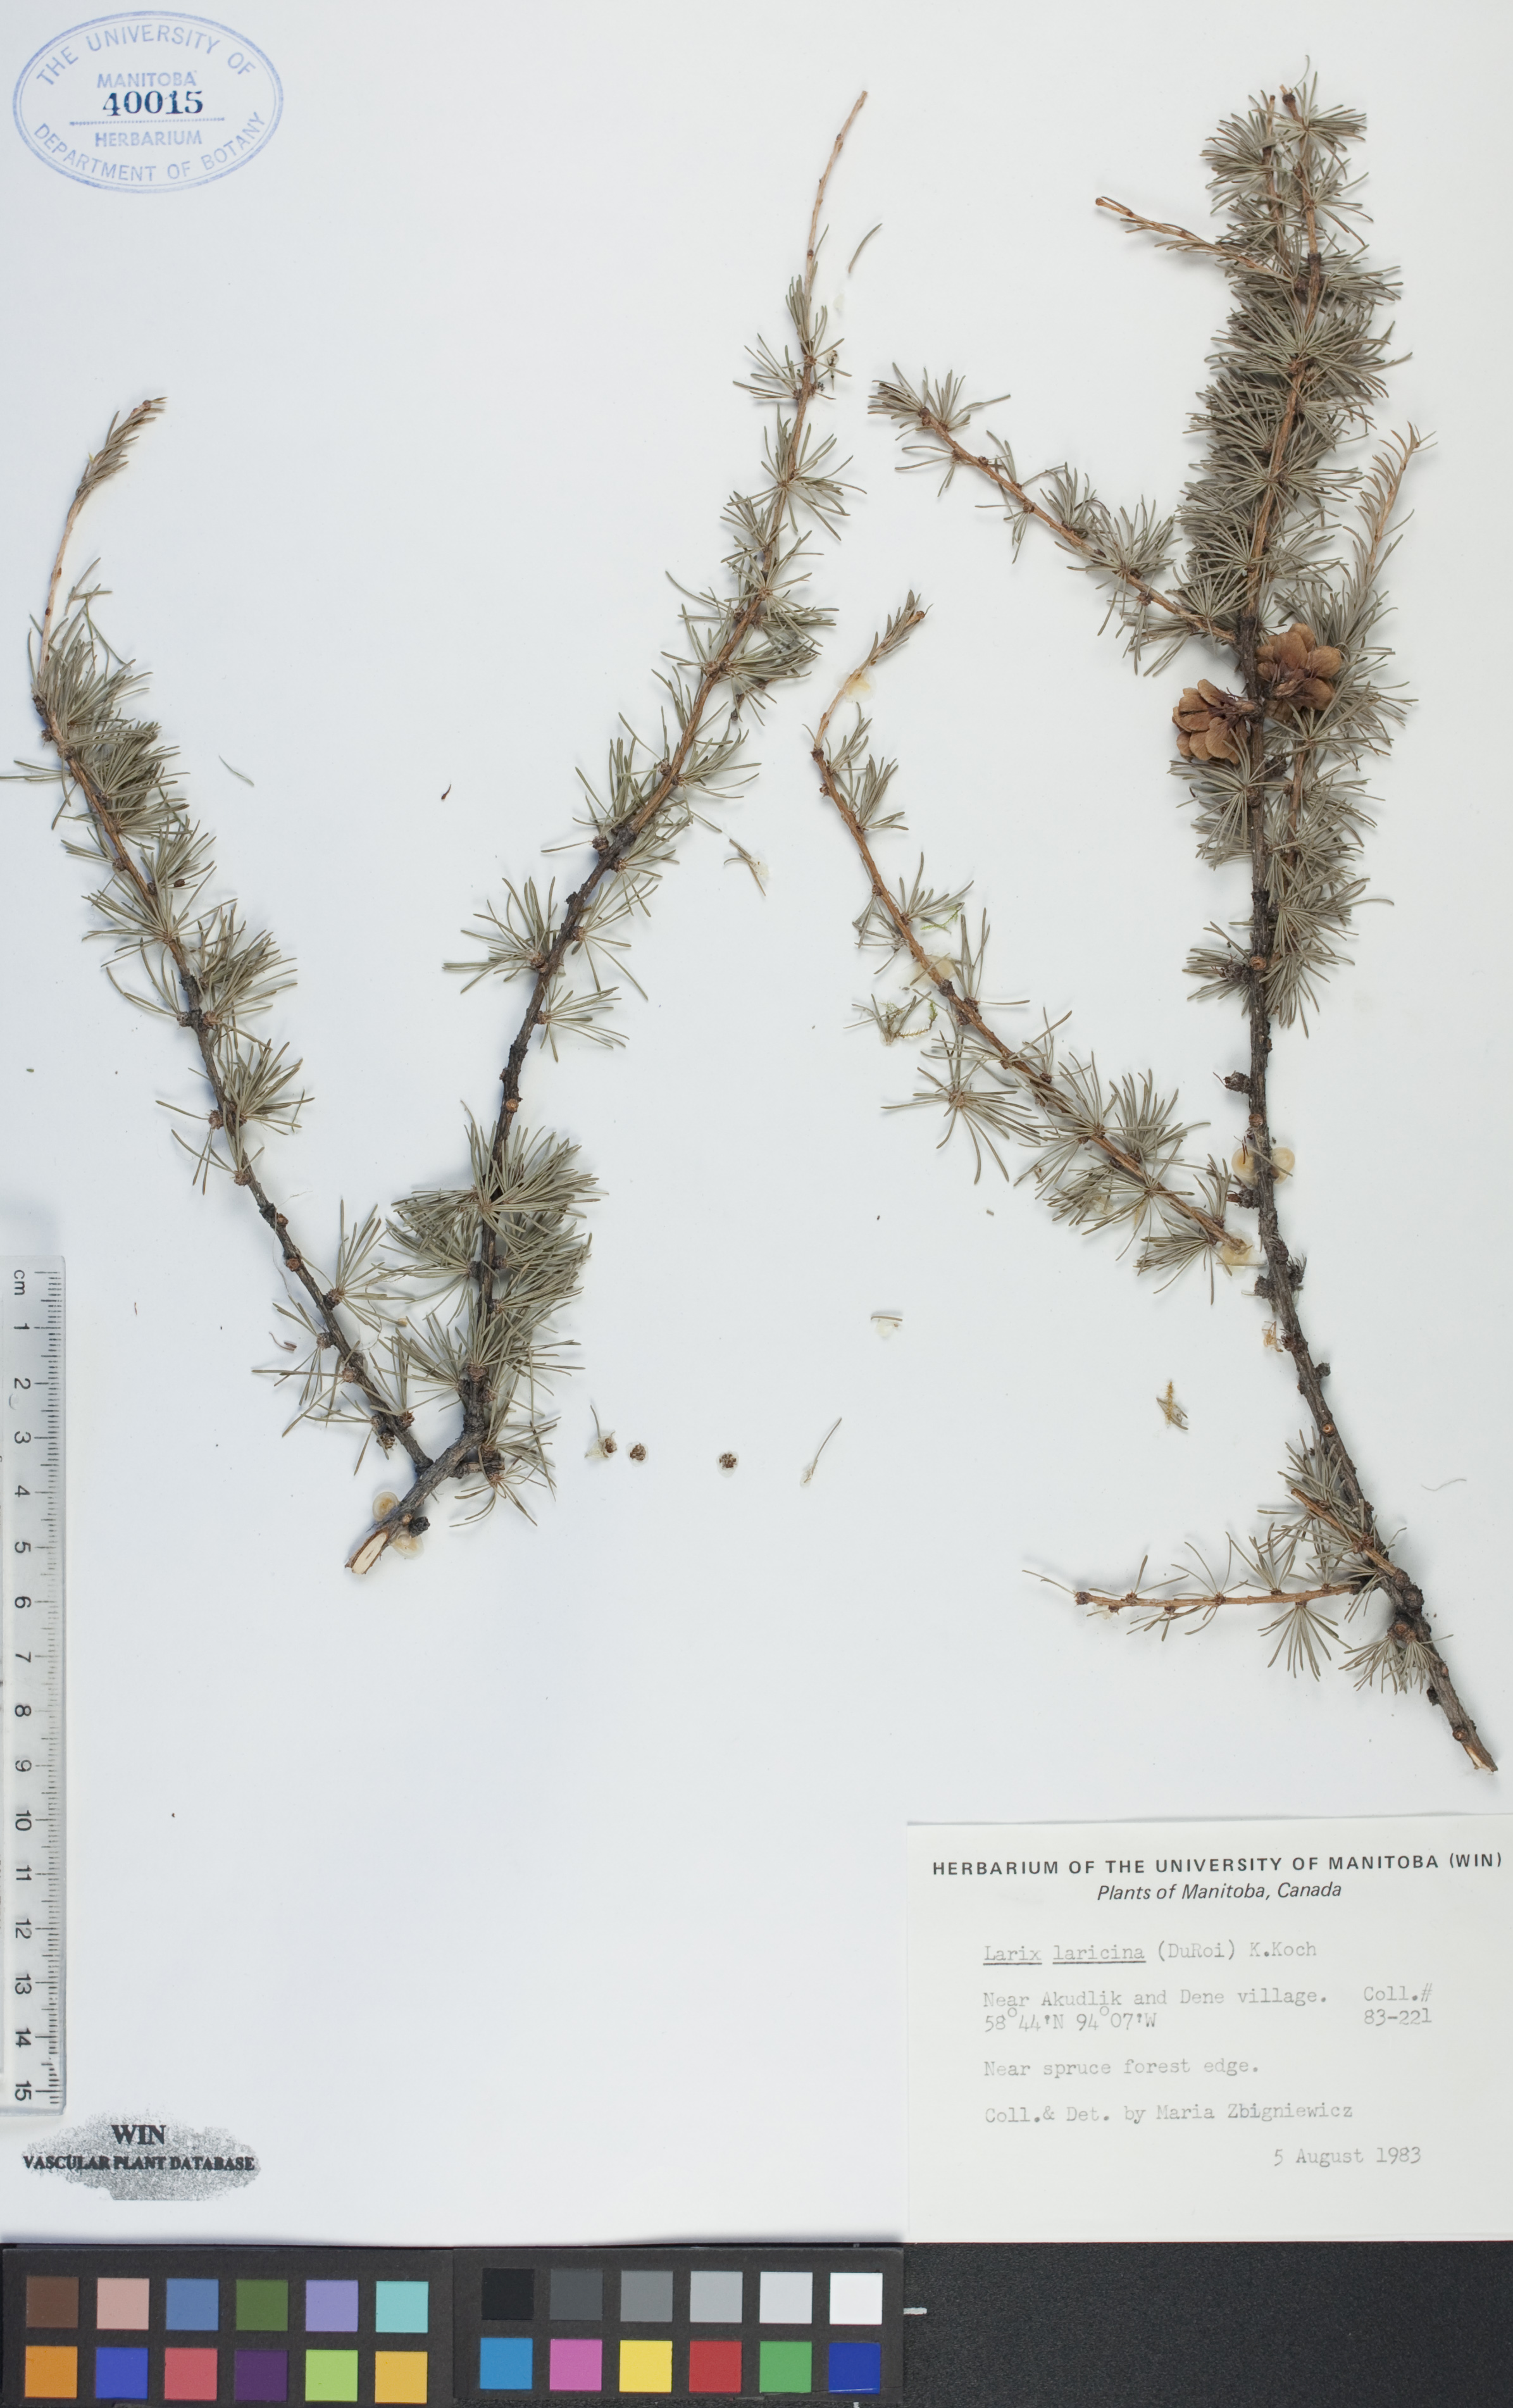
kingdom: Plantae
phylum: Tracheophyta
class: Pinopsida
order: Pinales
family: Pinaceae
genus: Larix
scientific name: Larix laricina
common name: American larch
